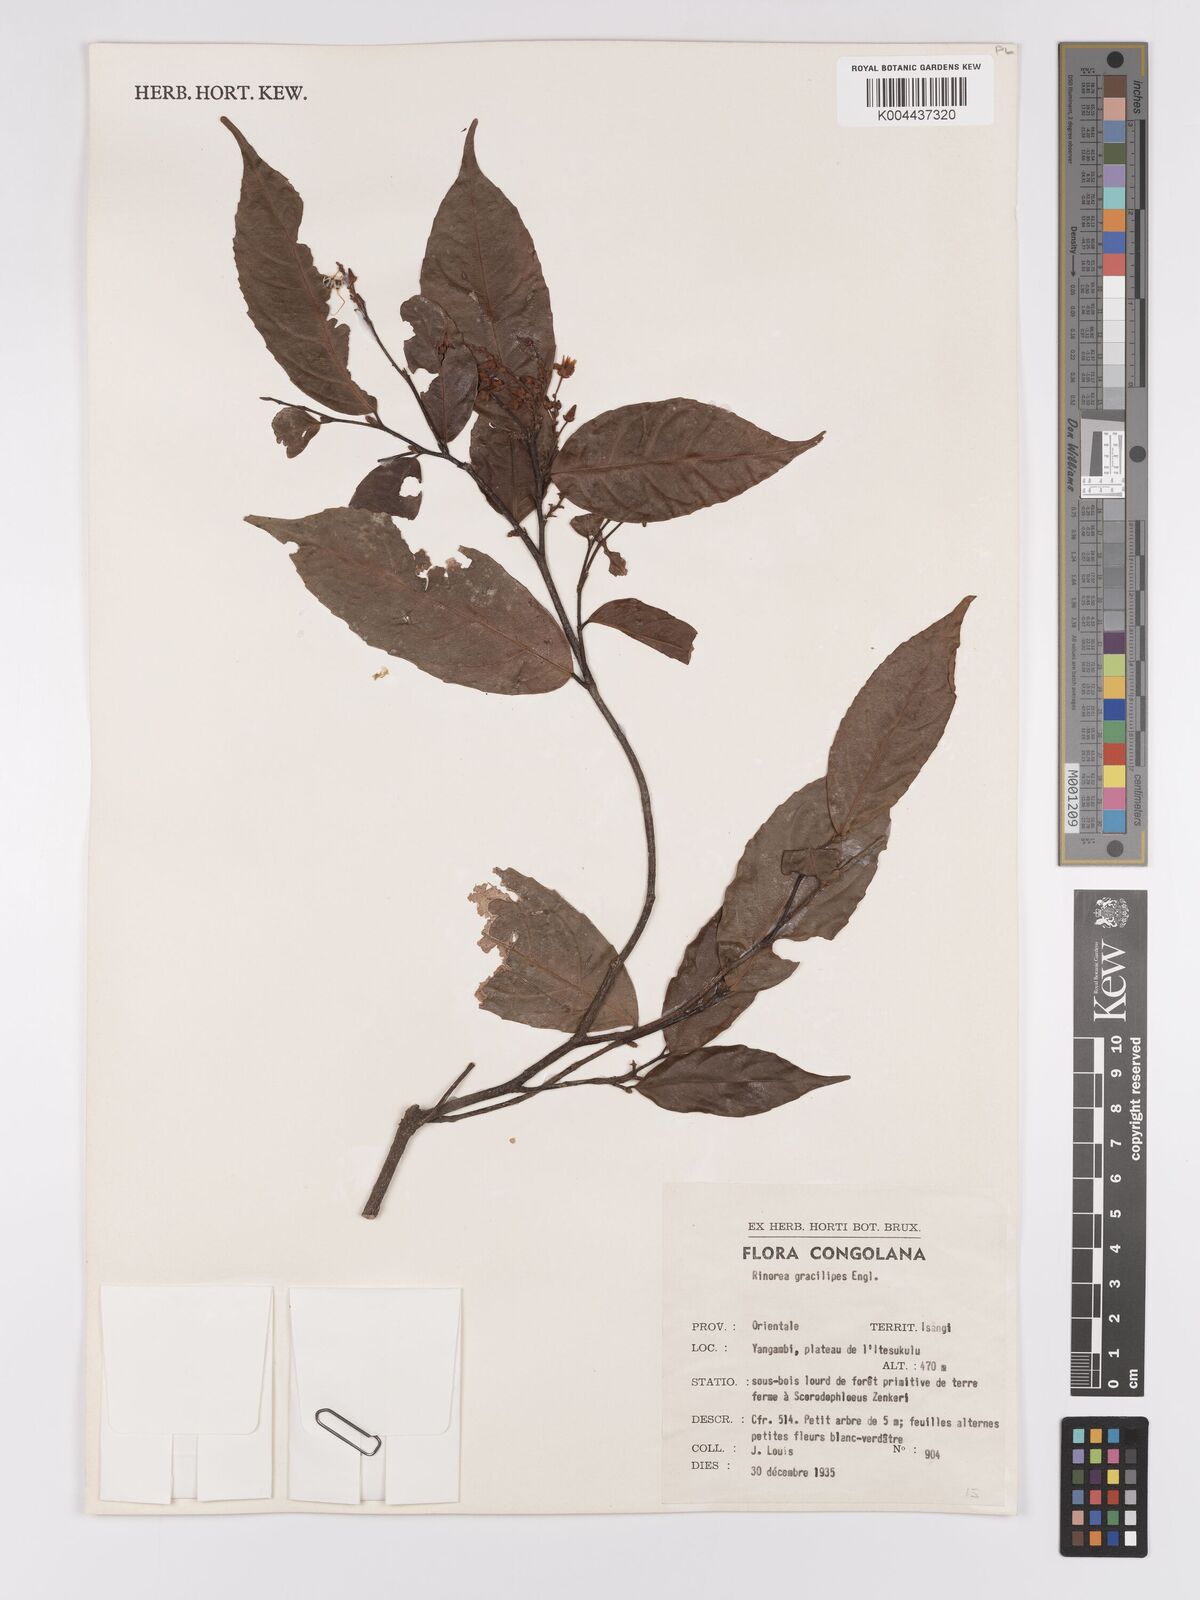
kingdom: Plantae
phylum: Tracheophyta
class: Magnoliopsida
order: Malpighiales
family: Violaceae
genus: Rinorea
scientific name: Rinorea angustifolia
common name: White violet-bush
